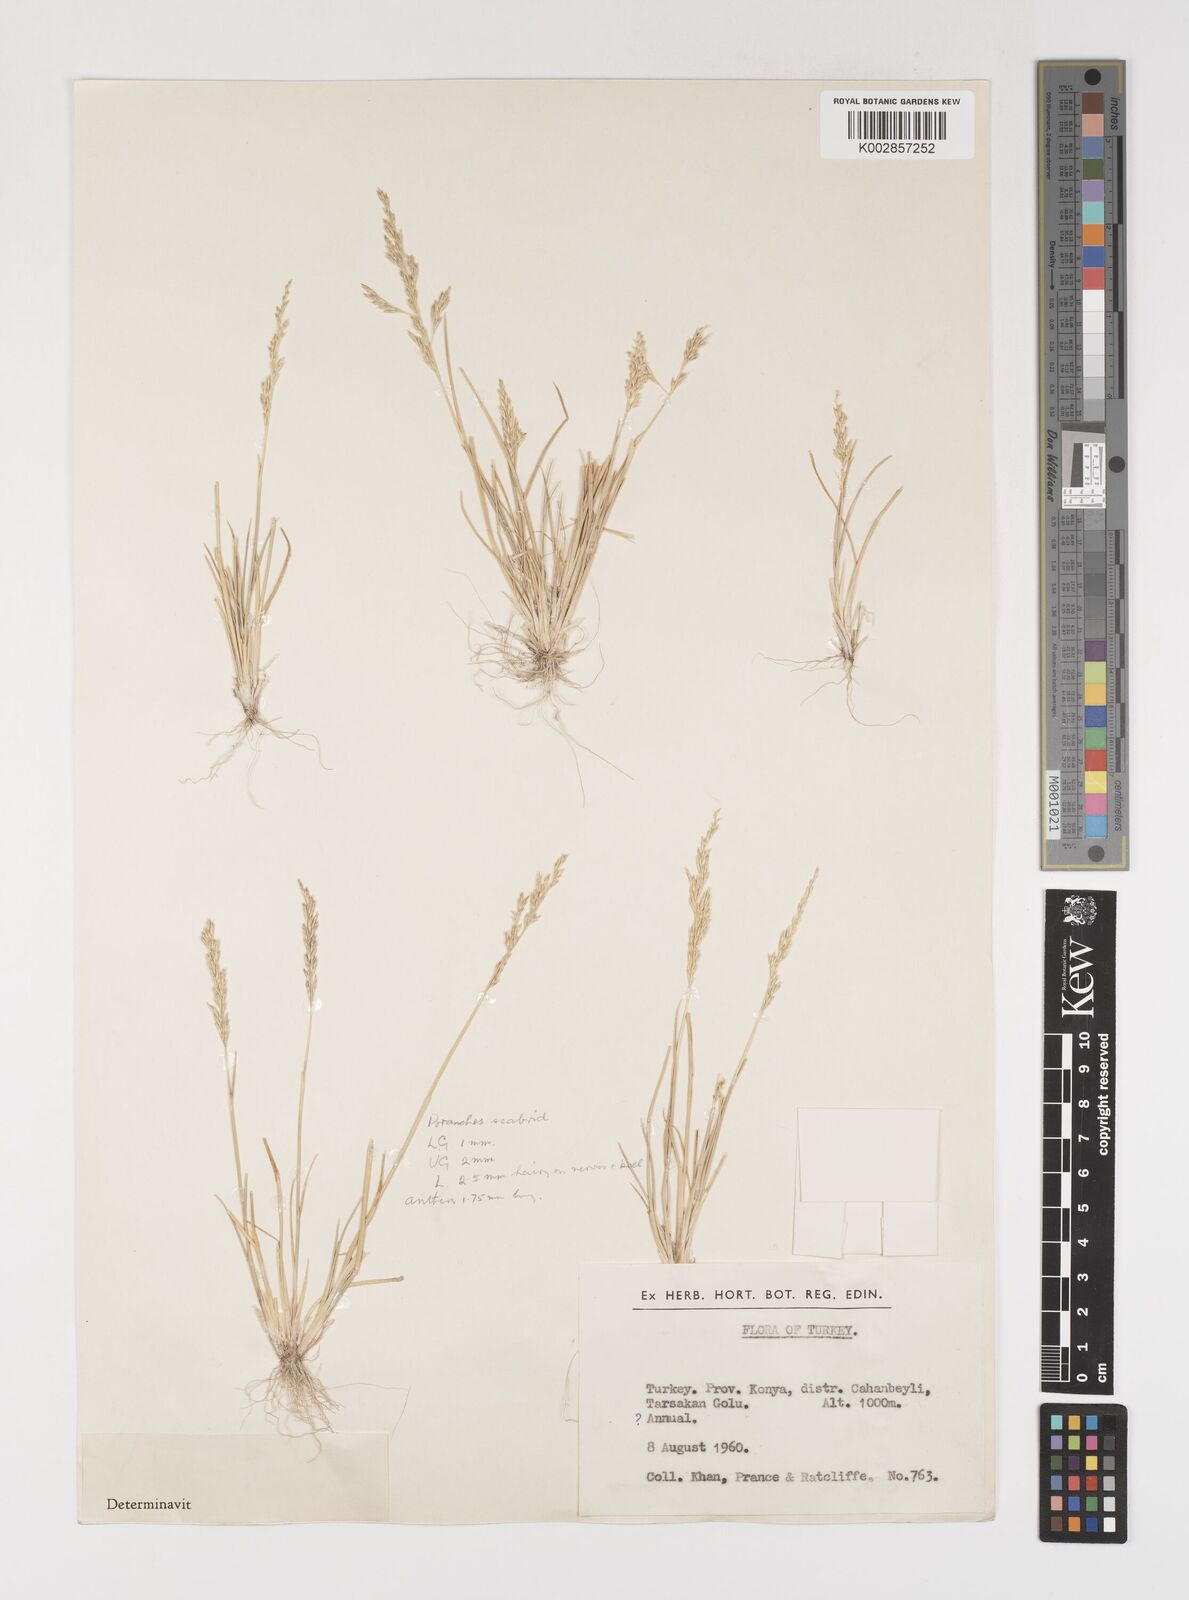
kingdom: Plantae
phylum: Tracheophyta
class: Liliopsida
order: Poales
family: Poaceae
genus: Puccinellia
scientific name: Puccinellia koeieana
